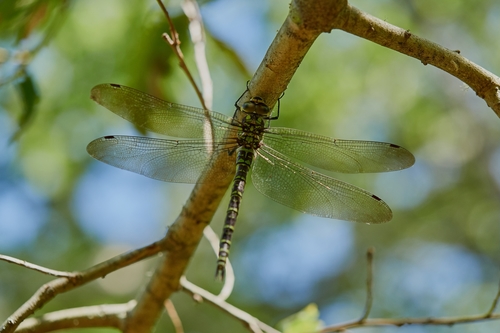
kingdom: Animalia
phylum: Arthropoda
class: Insecta
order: Odonata
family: Aeshnidae
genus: Aeshna
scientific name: Aeshna cyanea
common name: Southern hawker
